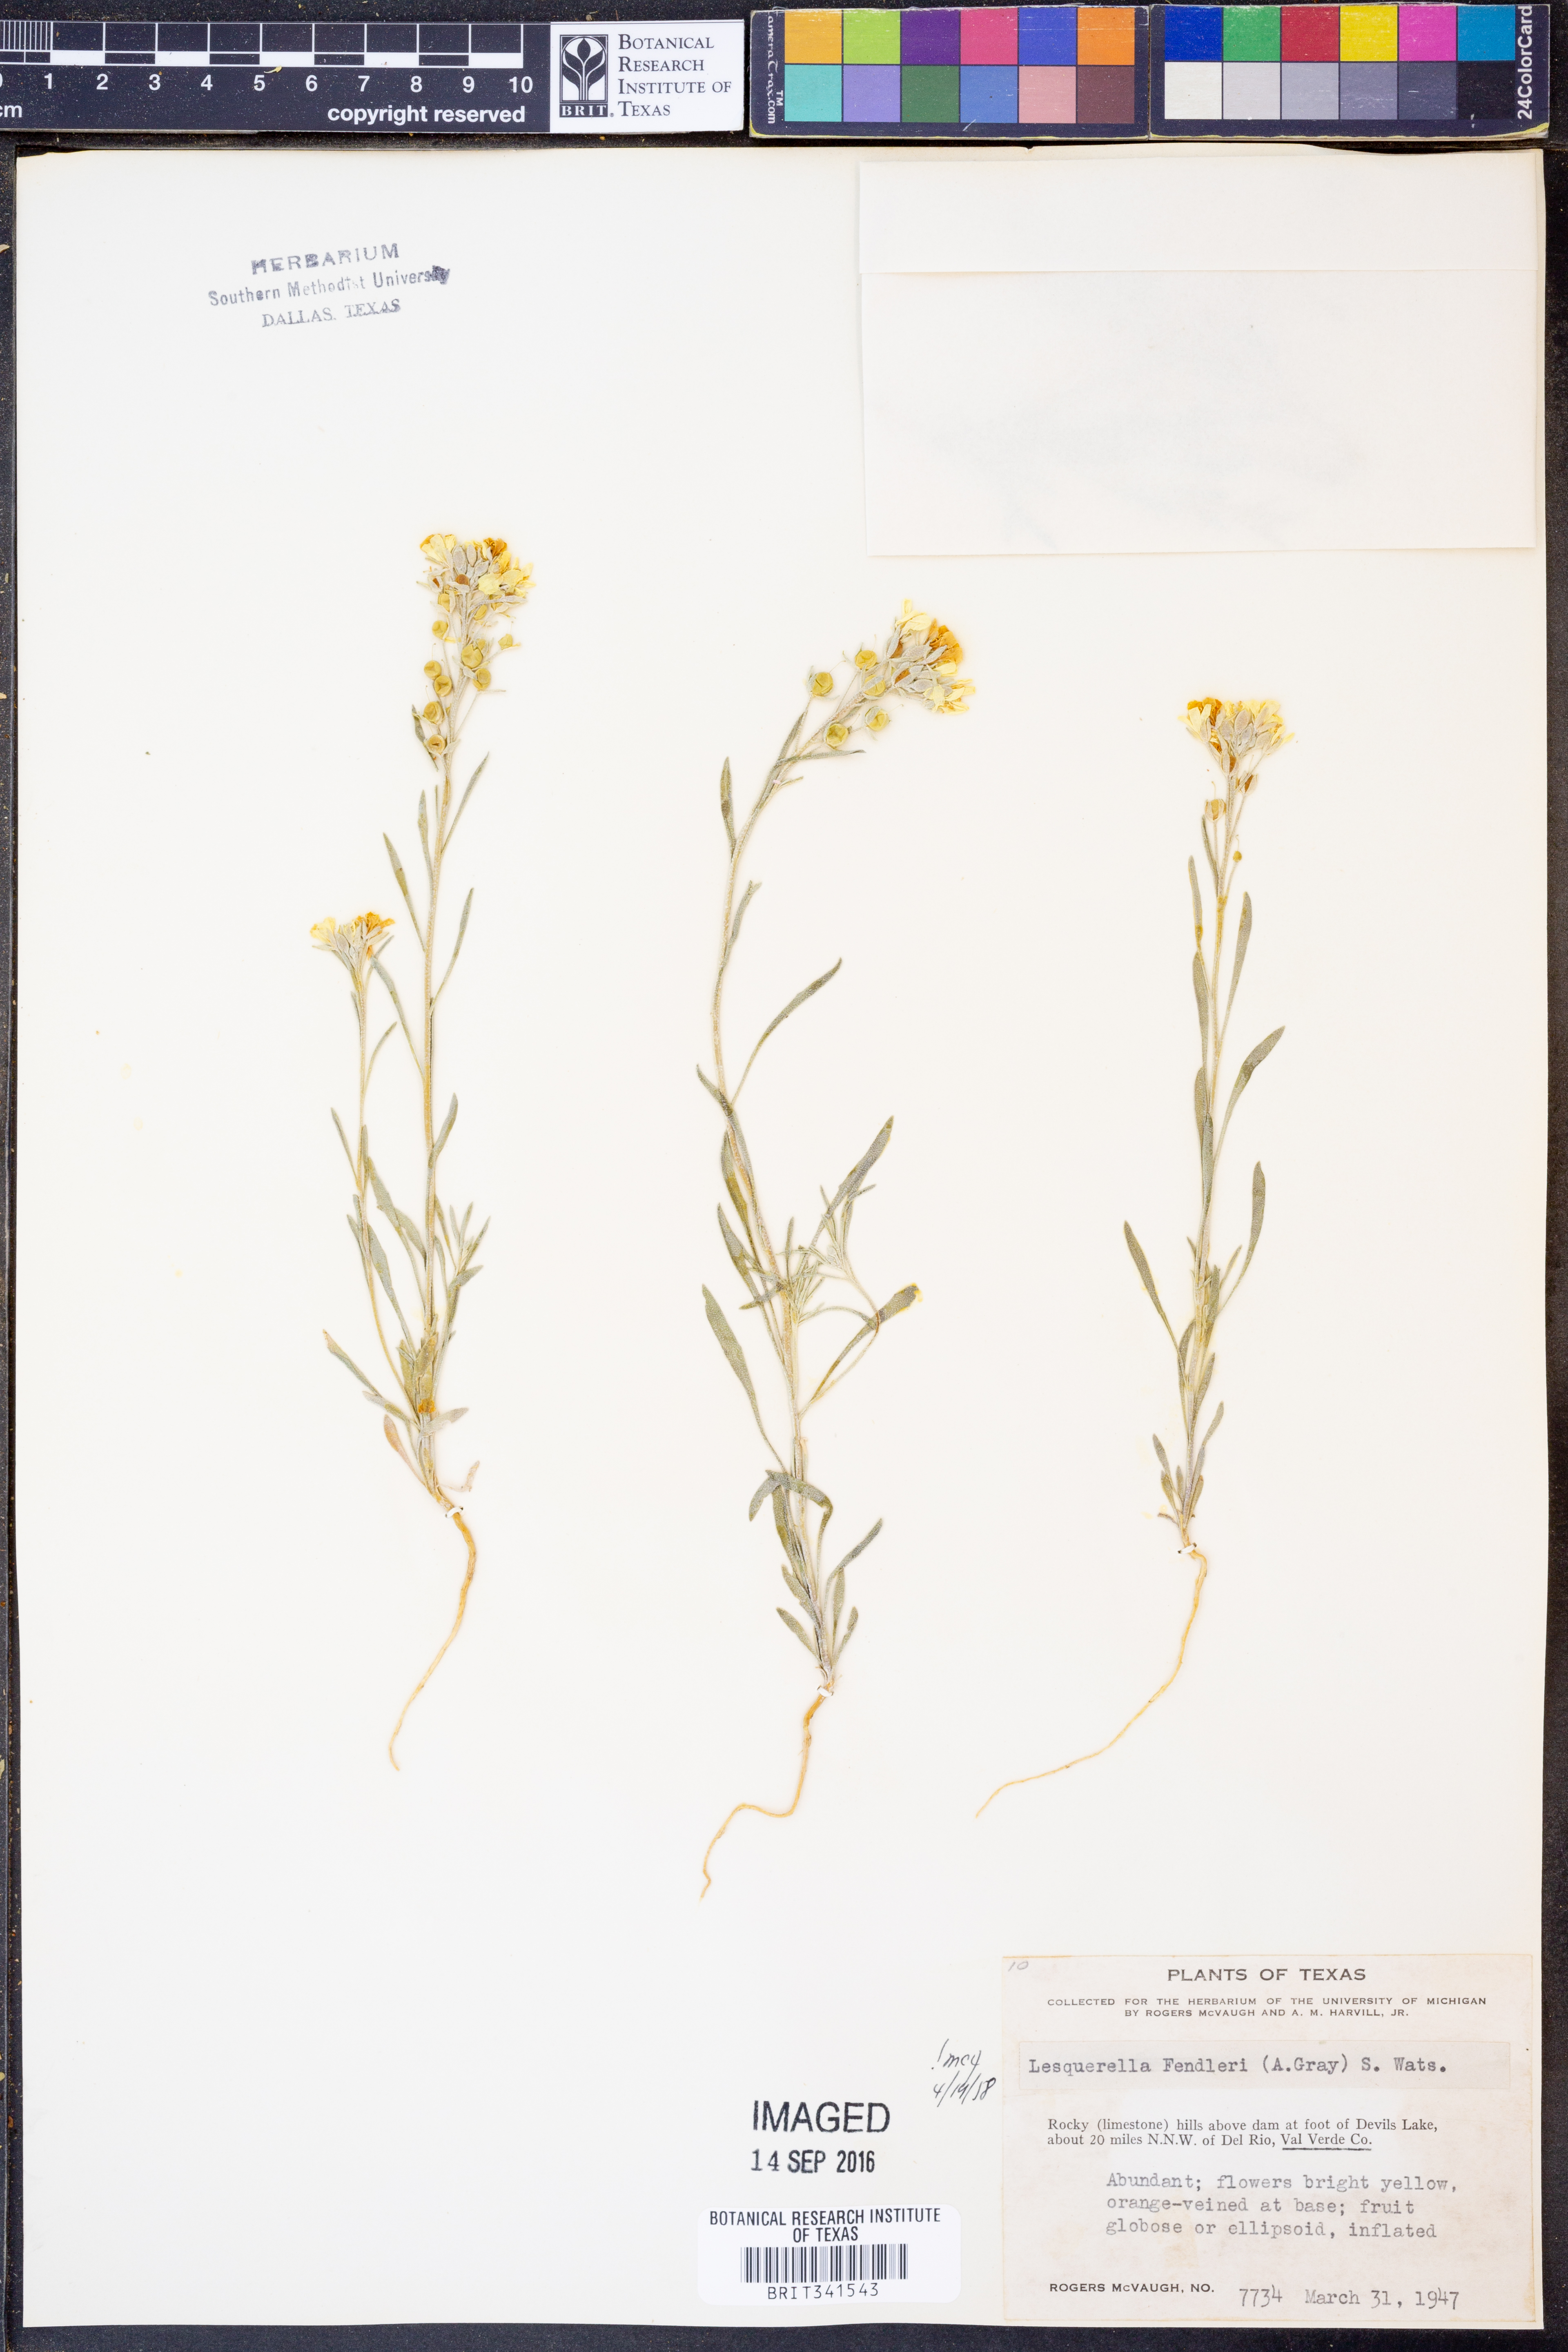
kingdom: Plantae
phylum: Tracheophyta
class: Magnoliopsida
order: Brassicales
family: Brassicaceae
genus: Physaria
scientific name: Physaria fendleri
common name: Fendler's bladderpod
